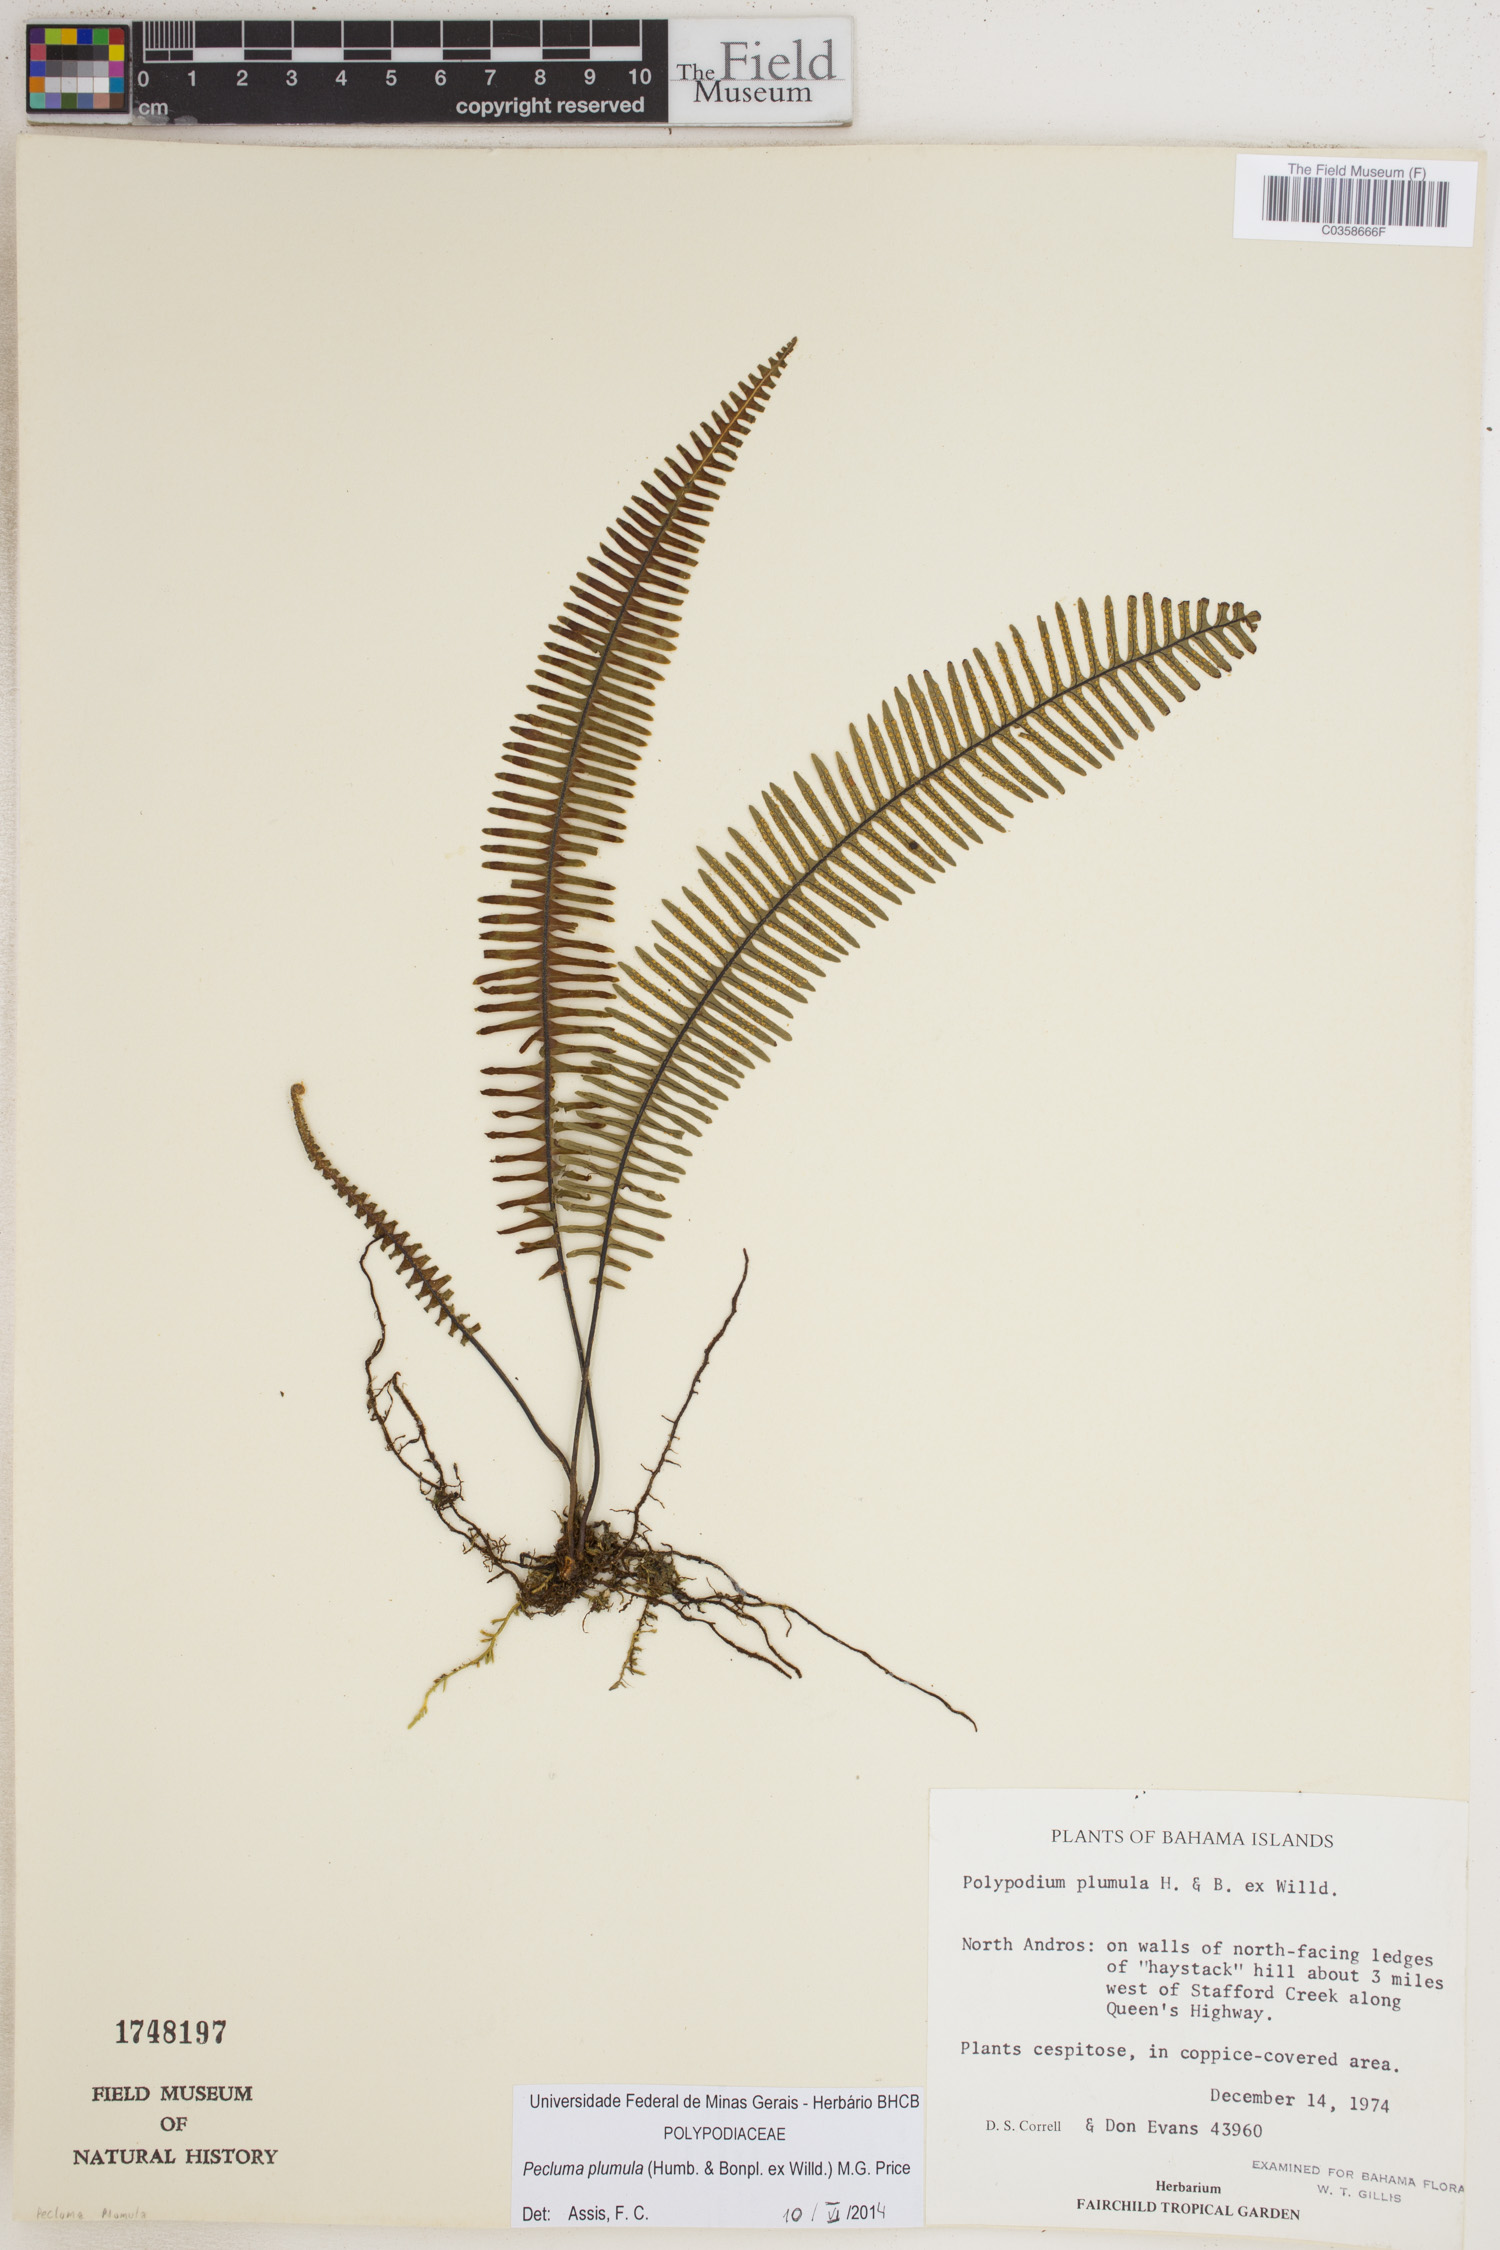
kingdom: Plantae
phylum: Tracheophyta
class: Polypodiopsida
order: Polypodiales
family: Polypodiaceae
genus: Pecluma
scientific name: Pecluma plumula
